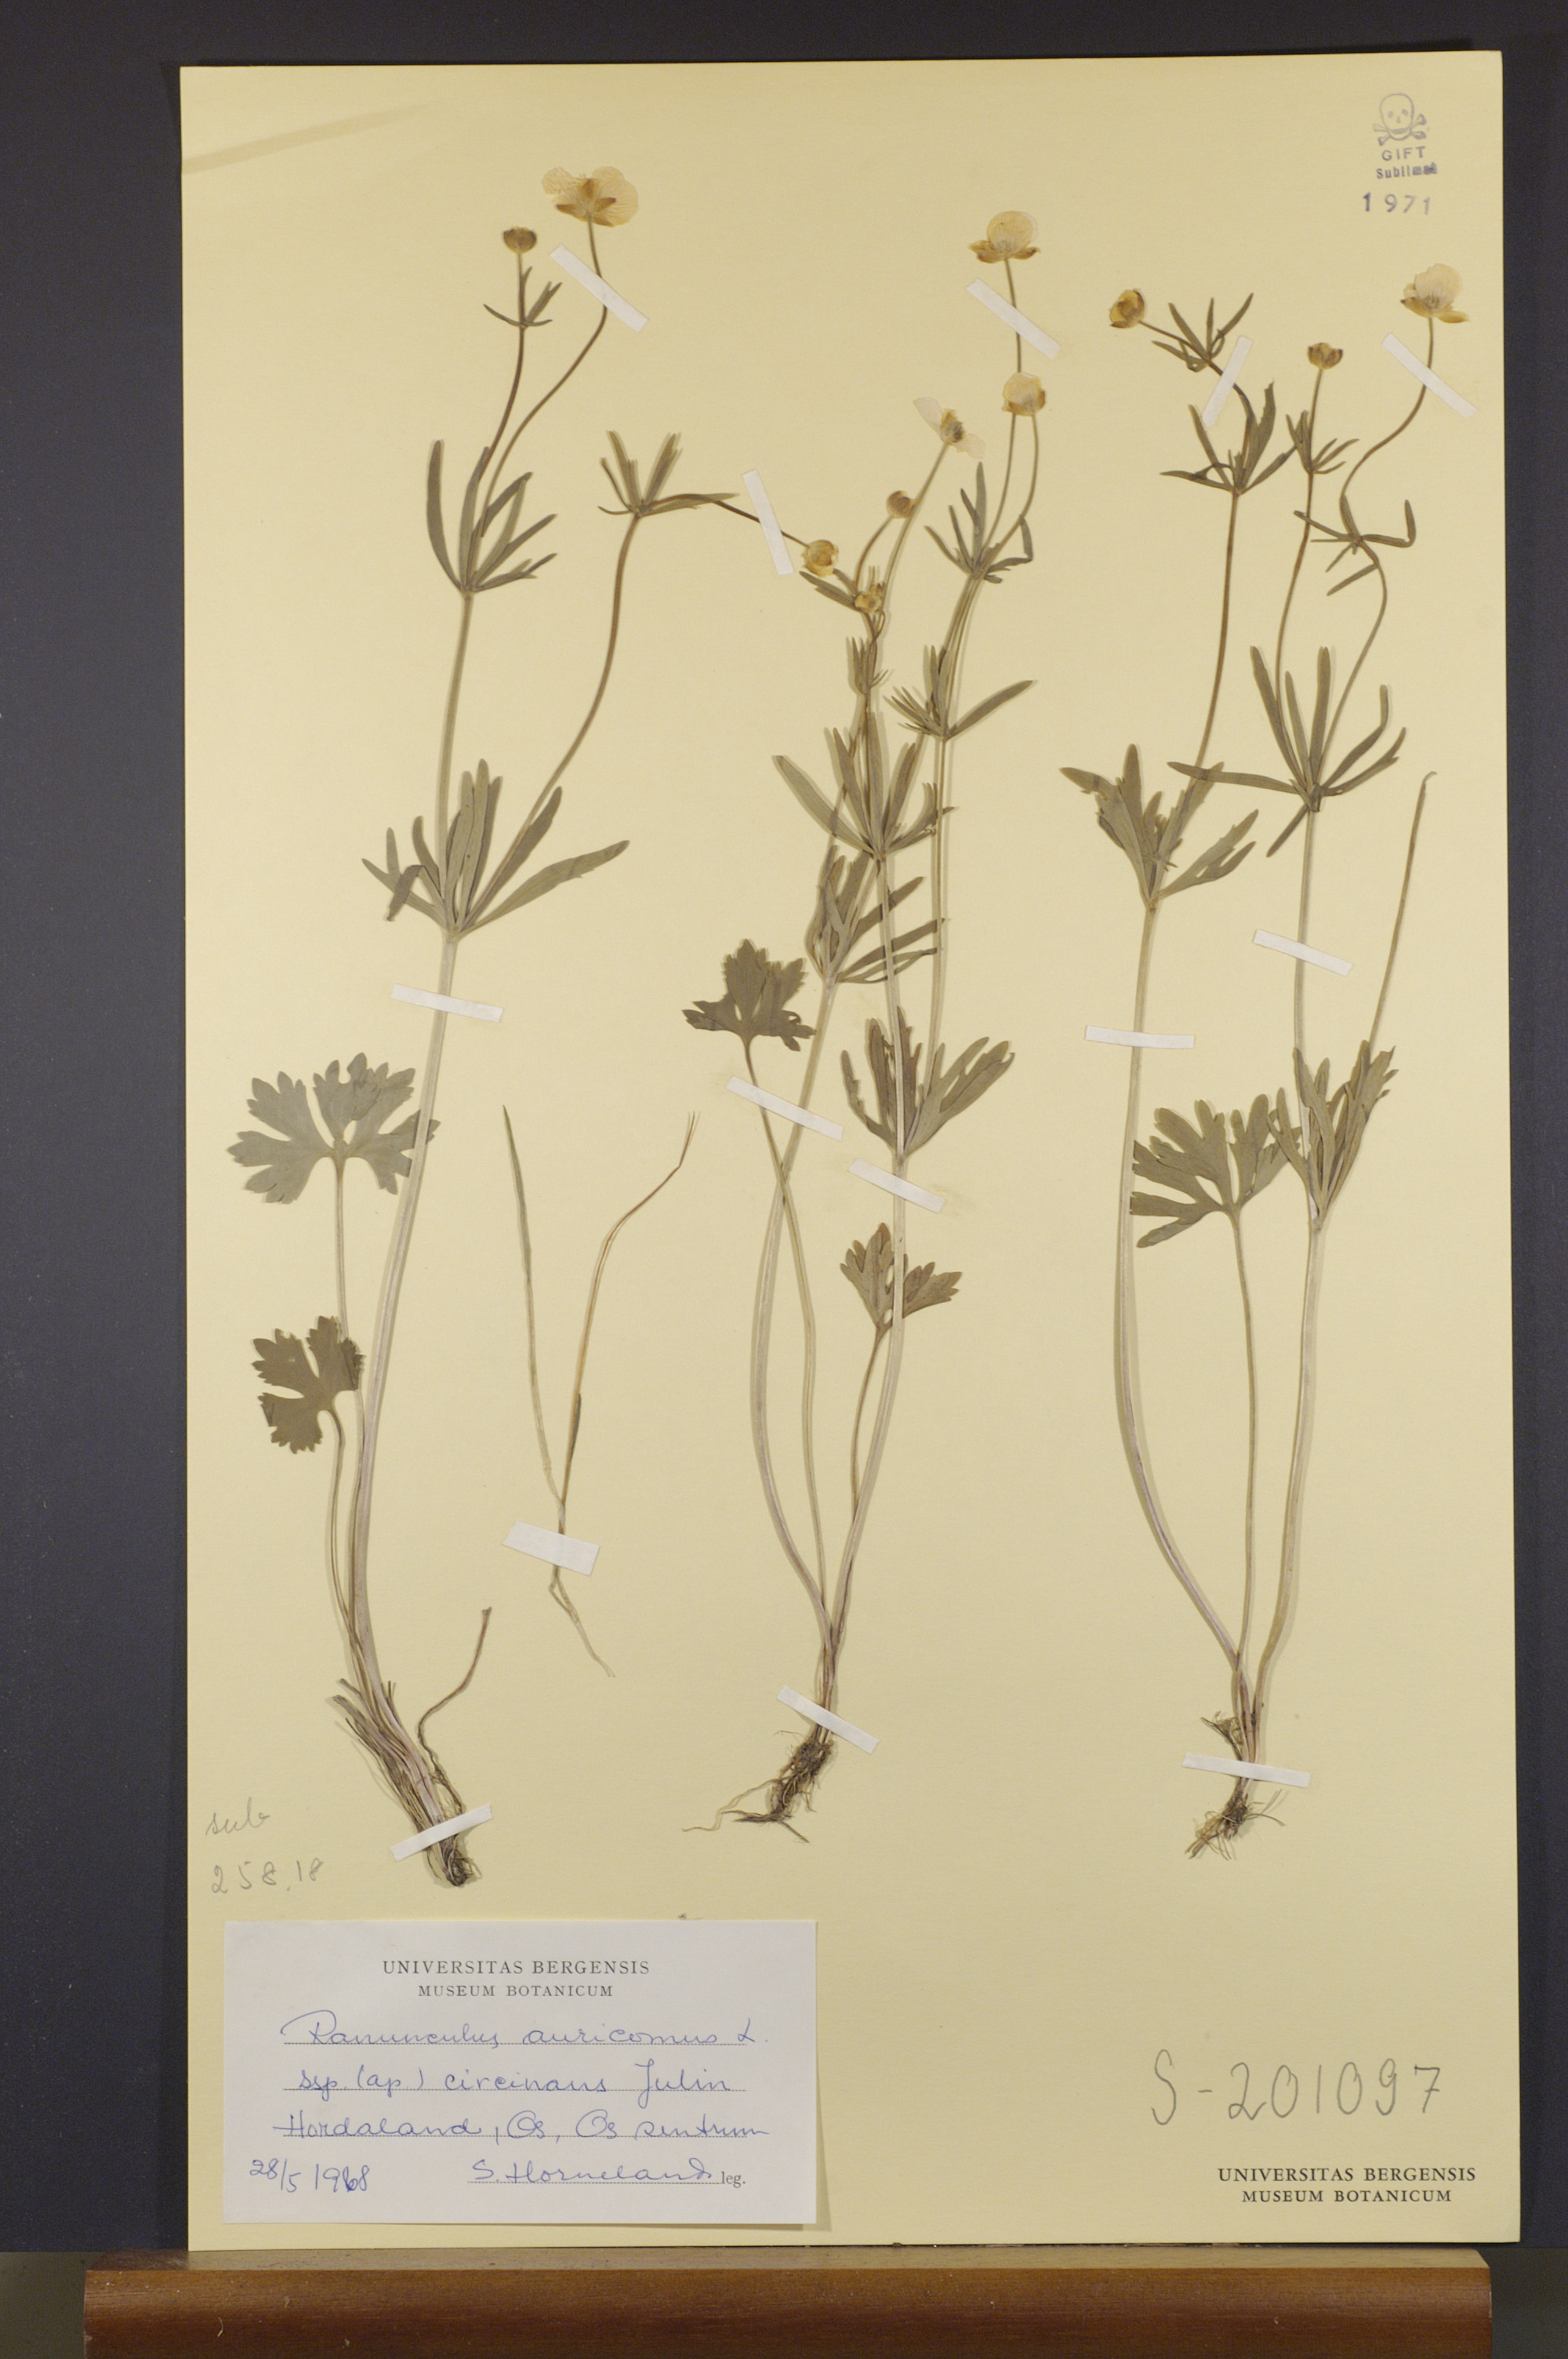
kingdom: Plantae
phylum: Tracheophyta
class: Magnoliopsida
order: Ranunculales
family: Ranunculaceae
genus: Ranunculus
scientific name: Ranunculus circinans
